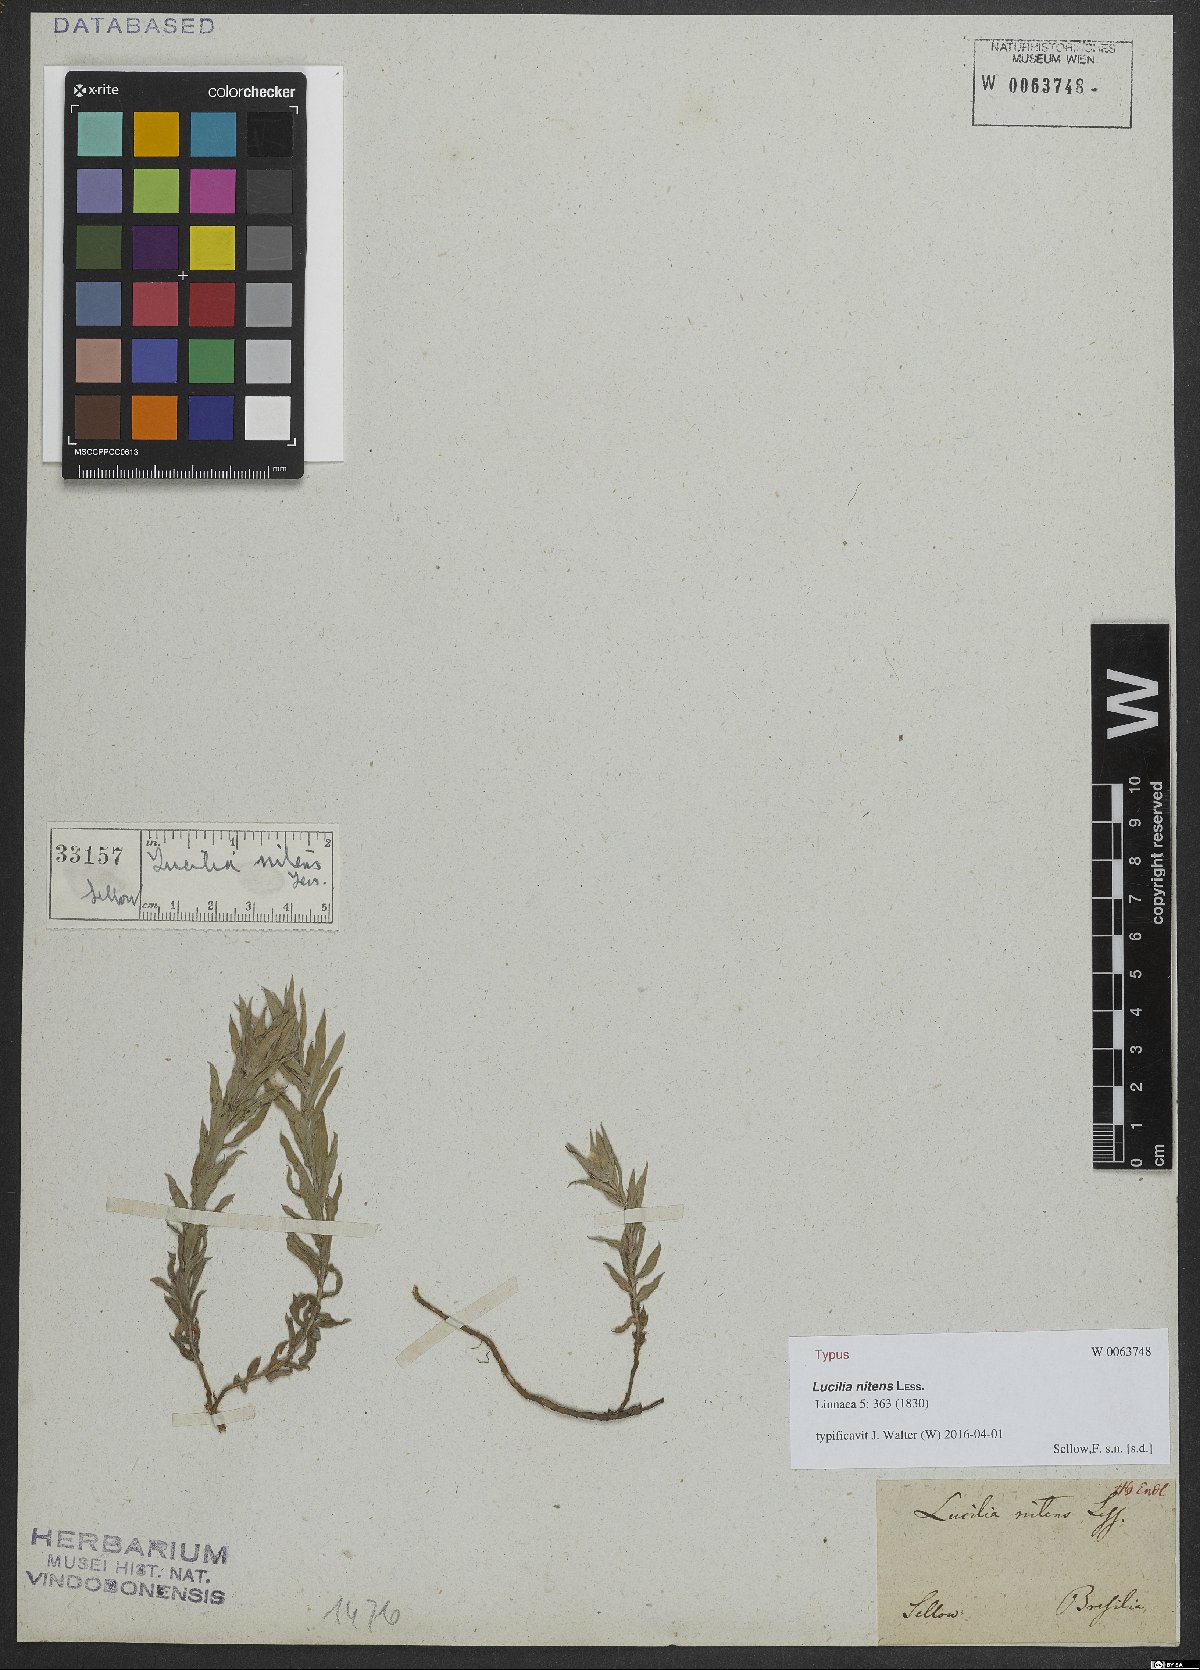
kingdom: Plantae
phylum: Tracheophyta
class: Magnoliopsida
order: Asterales
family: Asteraceae
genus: Lucilia
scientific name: Lucilia nitens
